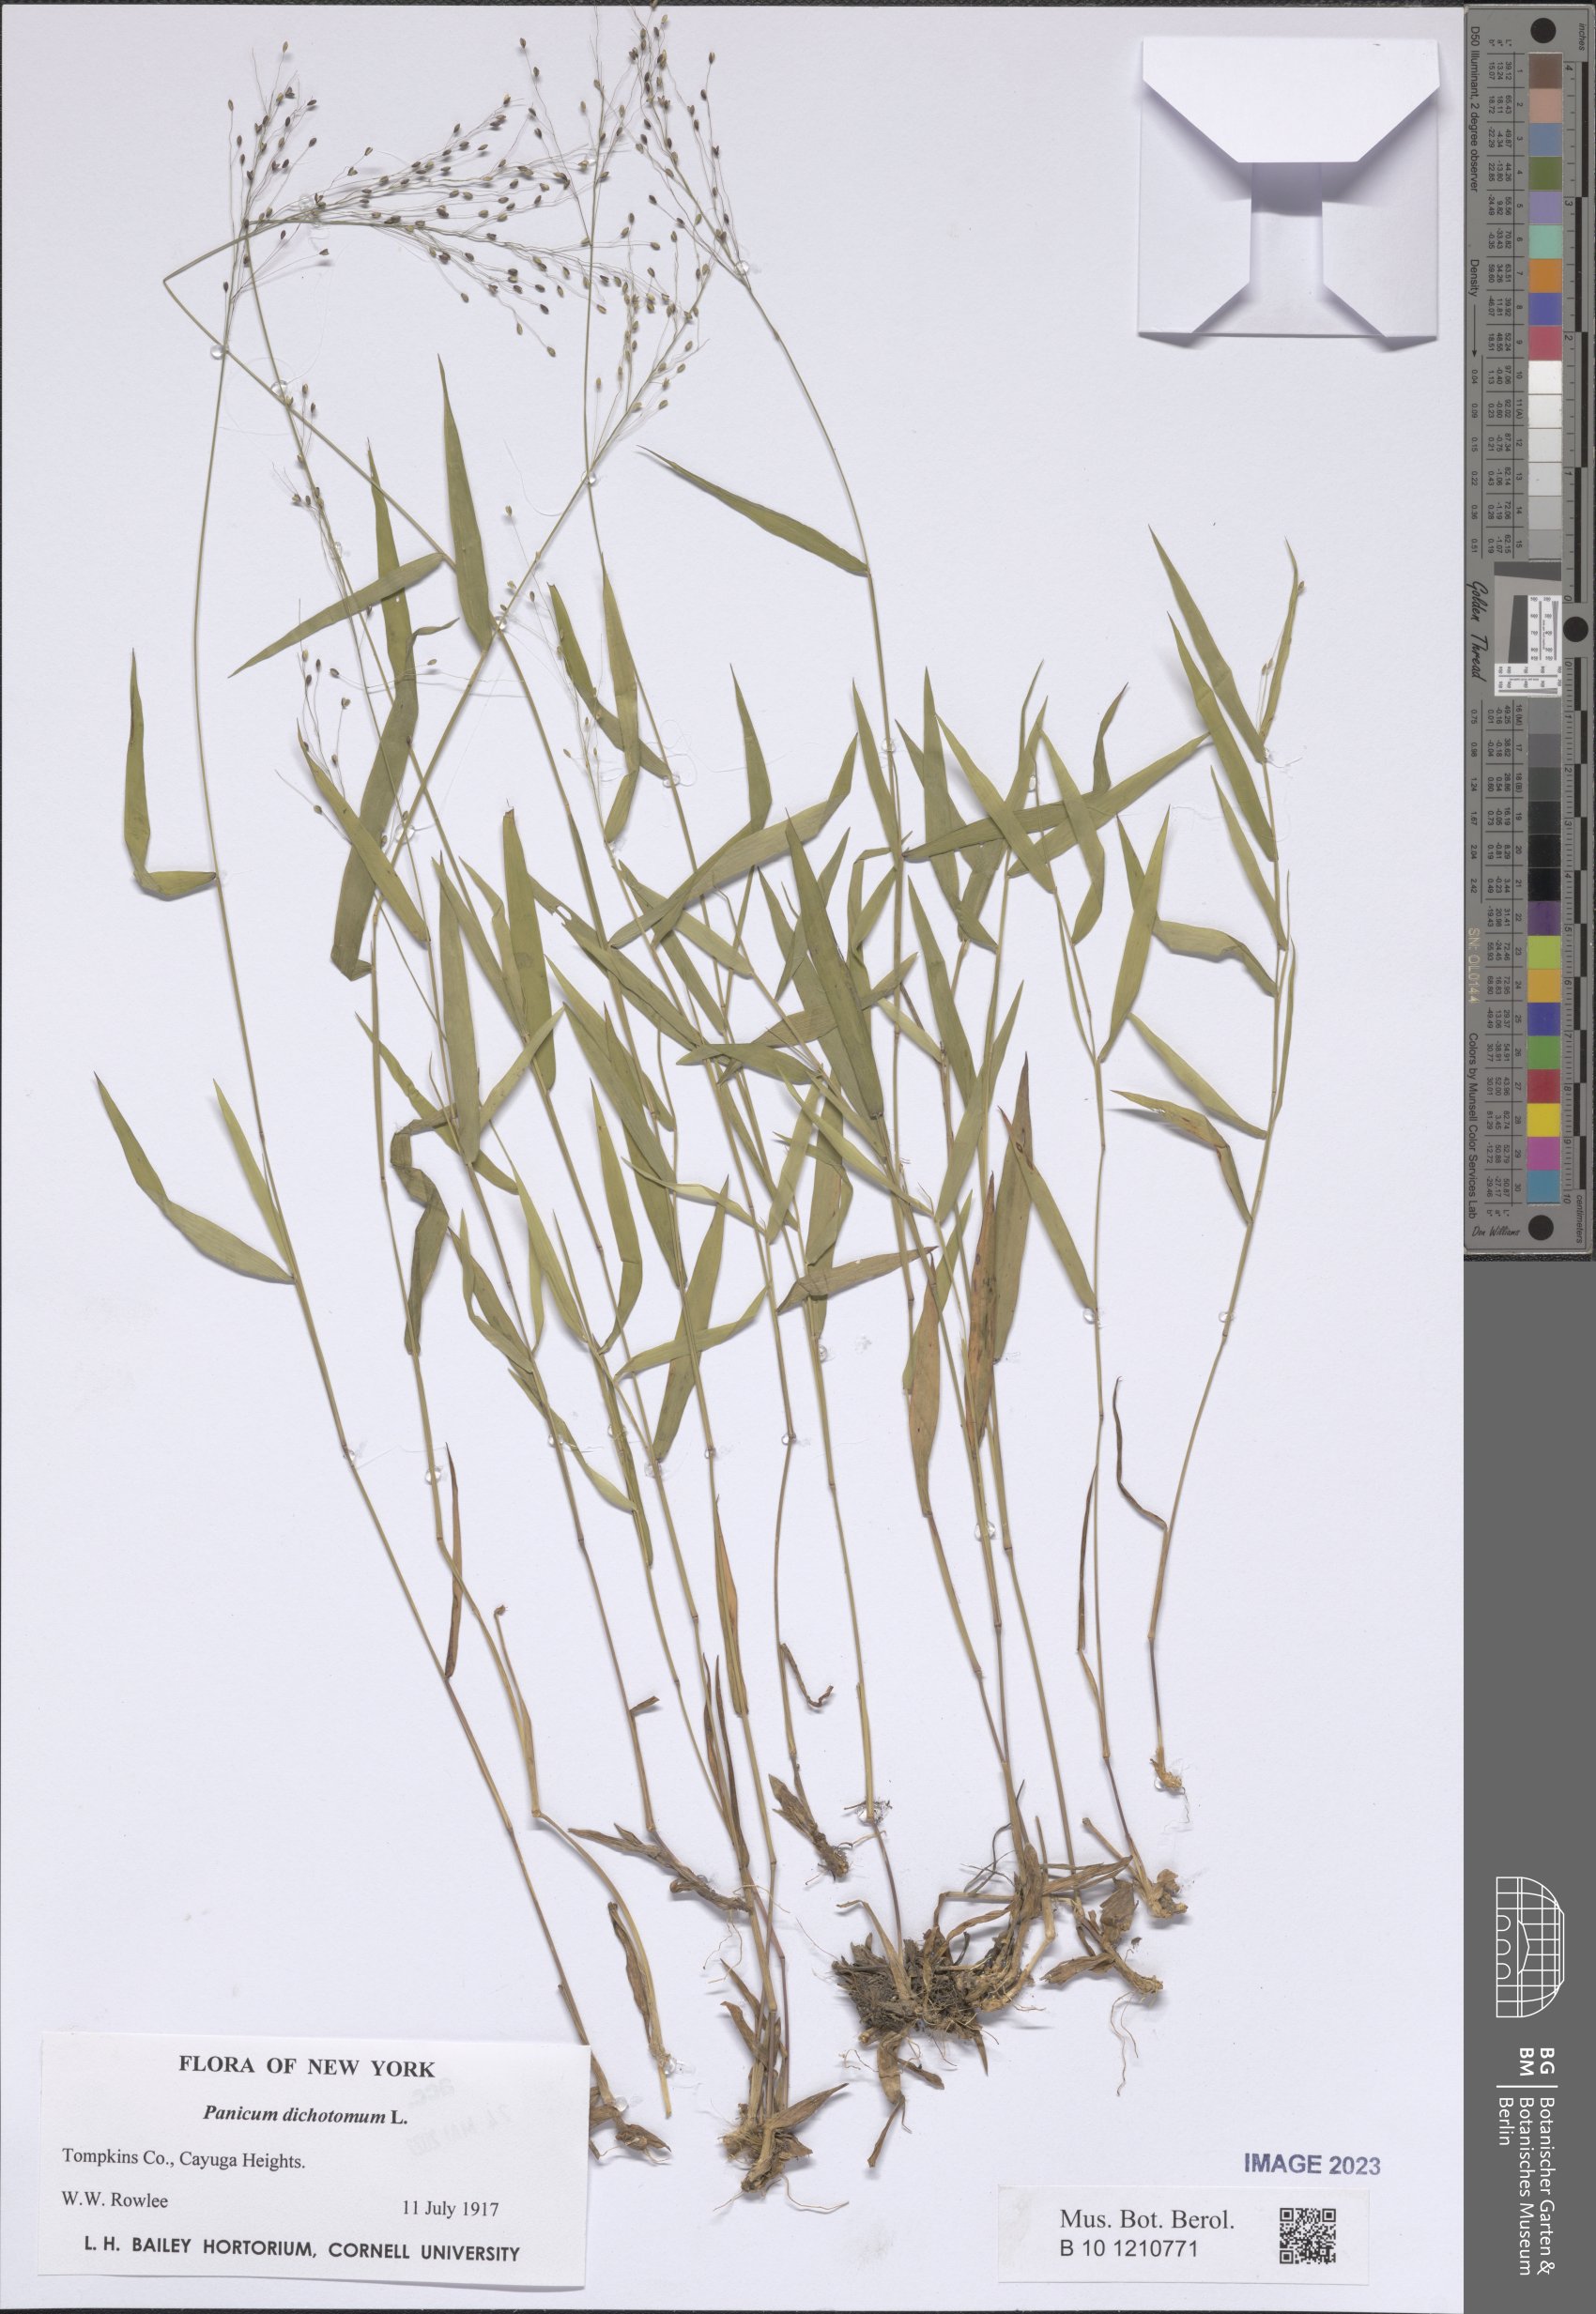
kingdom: Plantae
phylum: Tracheophyta
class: Liliopsida
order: Poales
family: Poaceae
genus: Dichanthelium
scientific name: Dichanthelium dichotomum
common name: Cypress panicgrass
